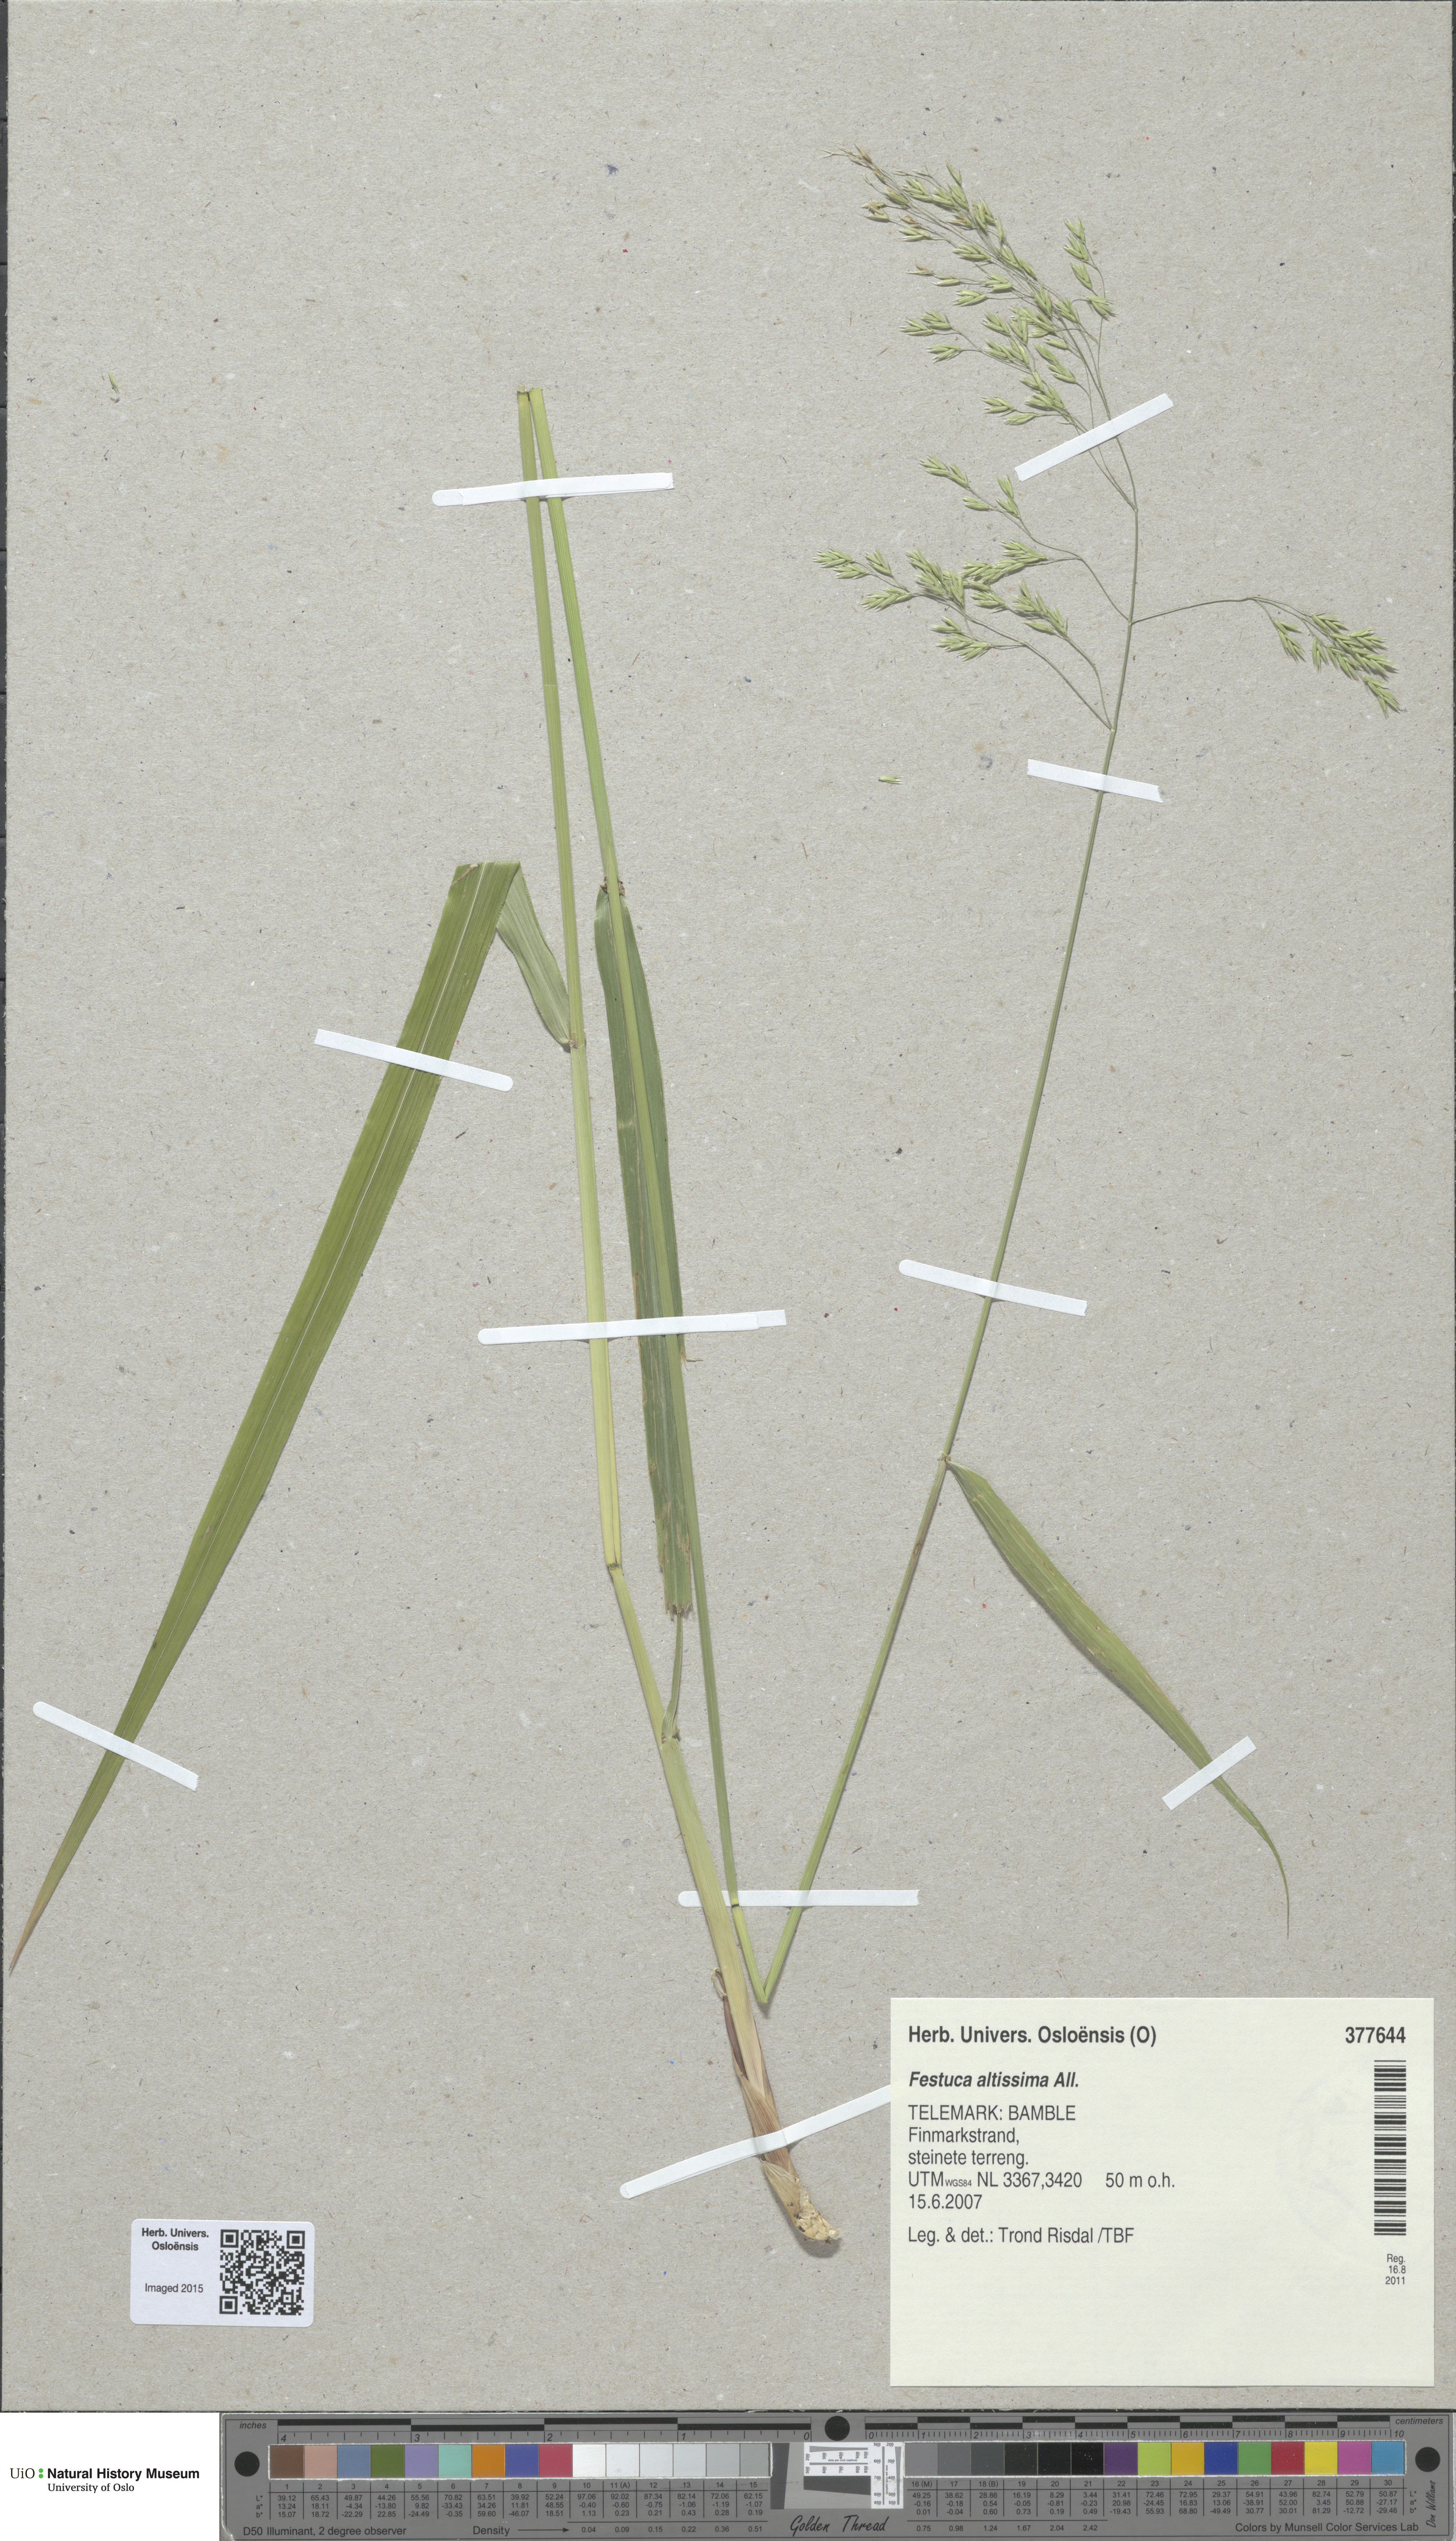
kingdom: Plantae
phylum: Tracheophyta
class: Liliopsida
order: Poales
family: Poaceae
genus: Festuca
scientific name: Festuca altissima
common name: Wood fescue
